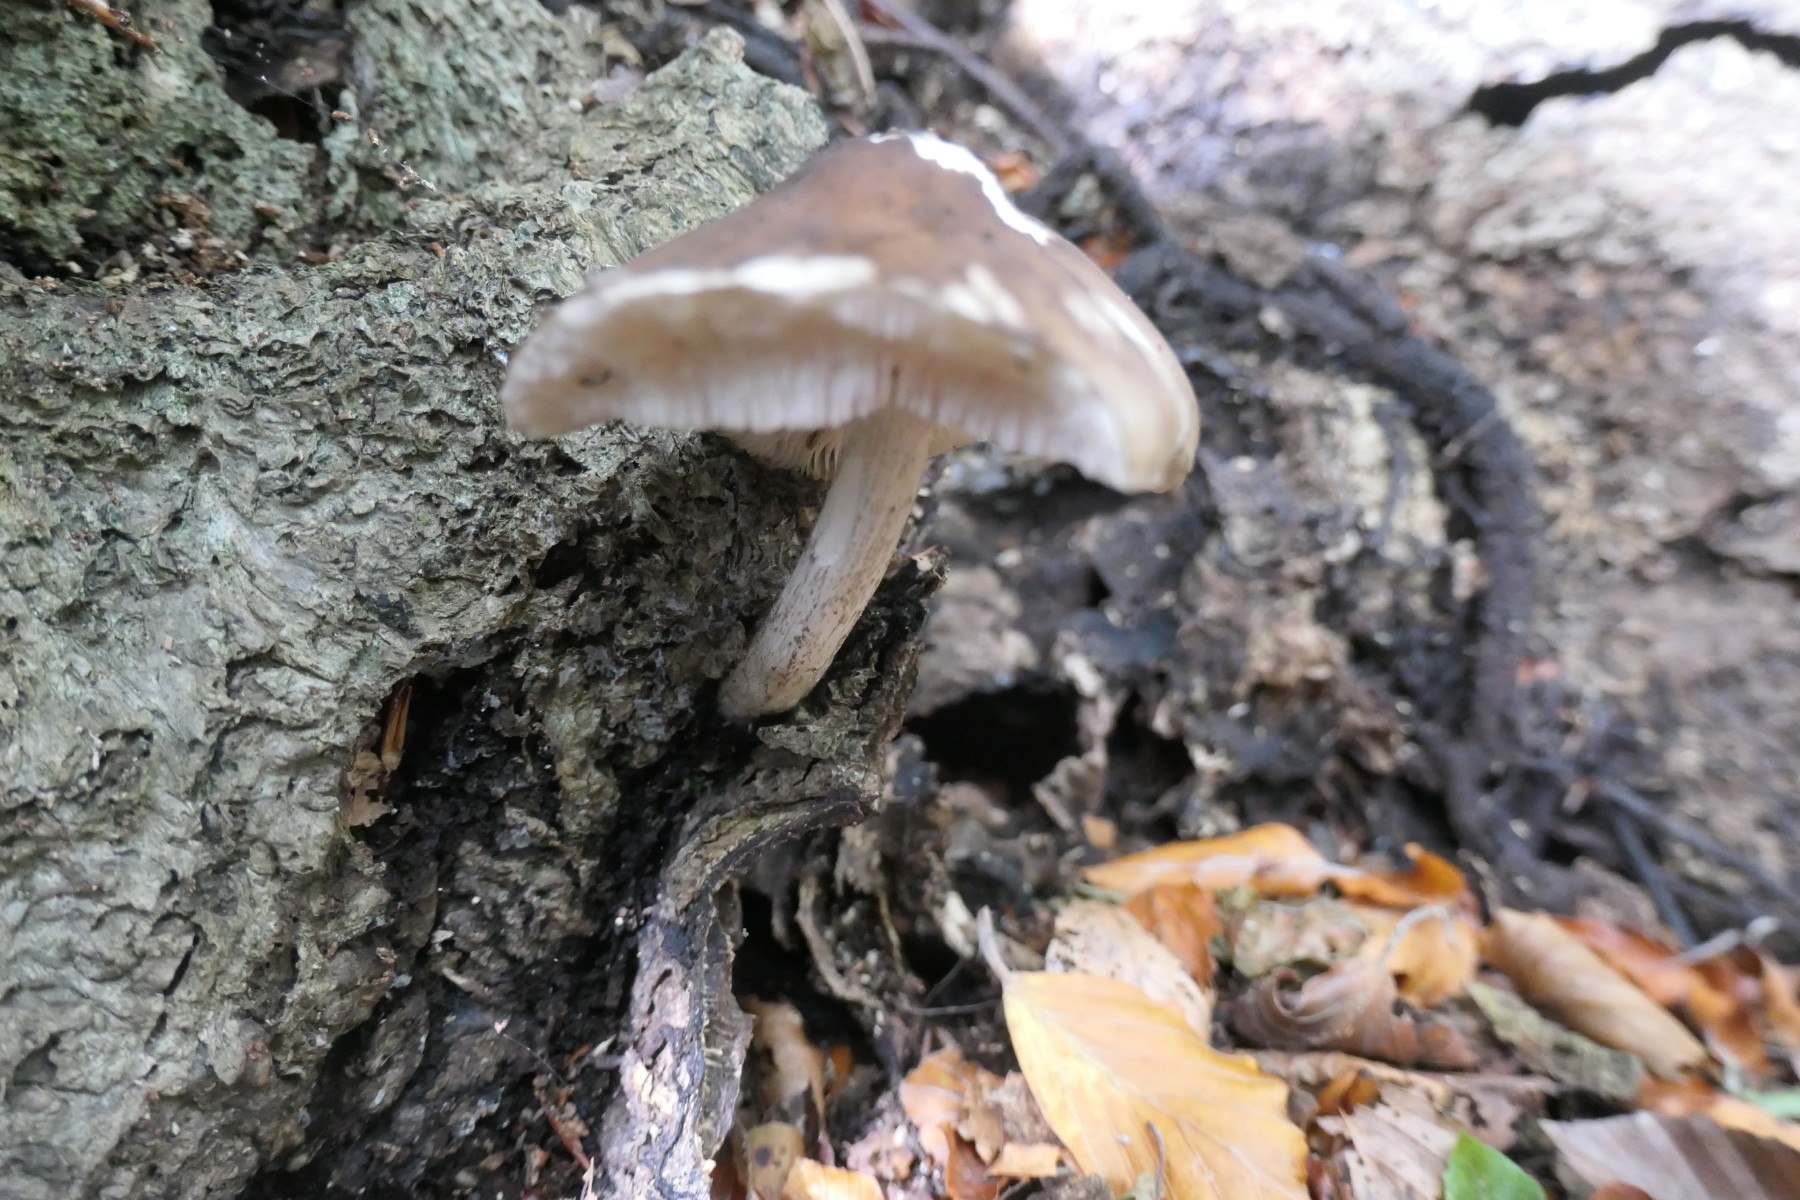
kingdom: Fungi
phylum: Basidiomycota
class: Agaricomycetes
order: Agaricales
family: Pluteaceae
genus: Pluteus
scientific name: Pluteus cervinus
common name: sodfarvet skærmhat
